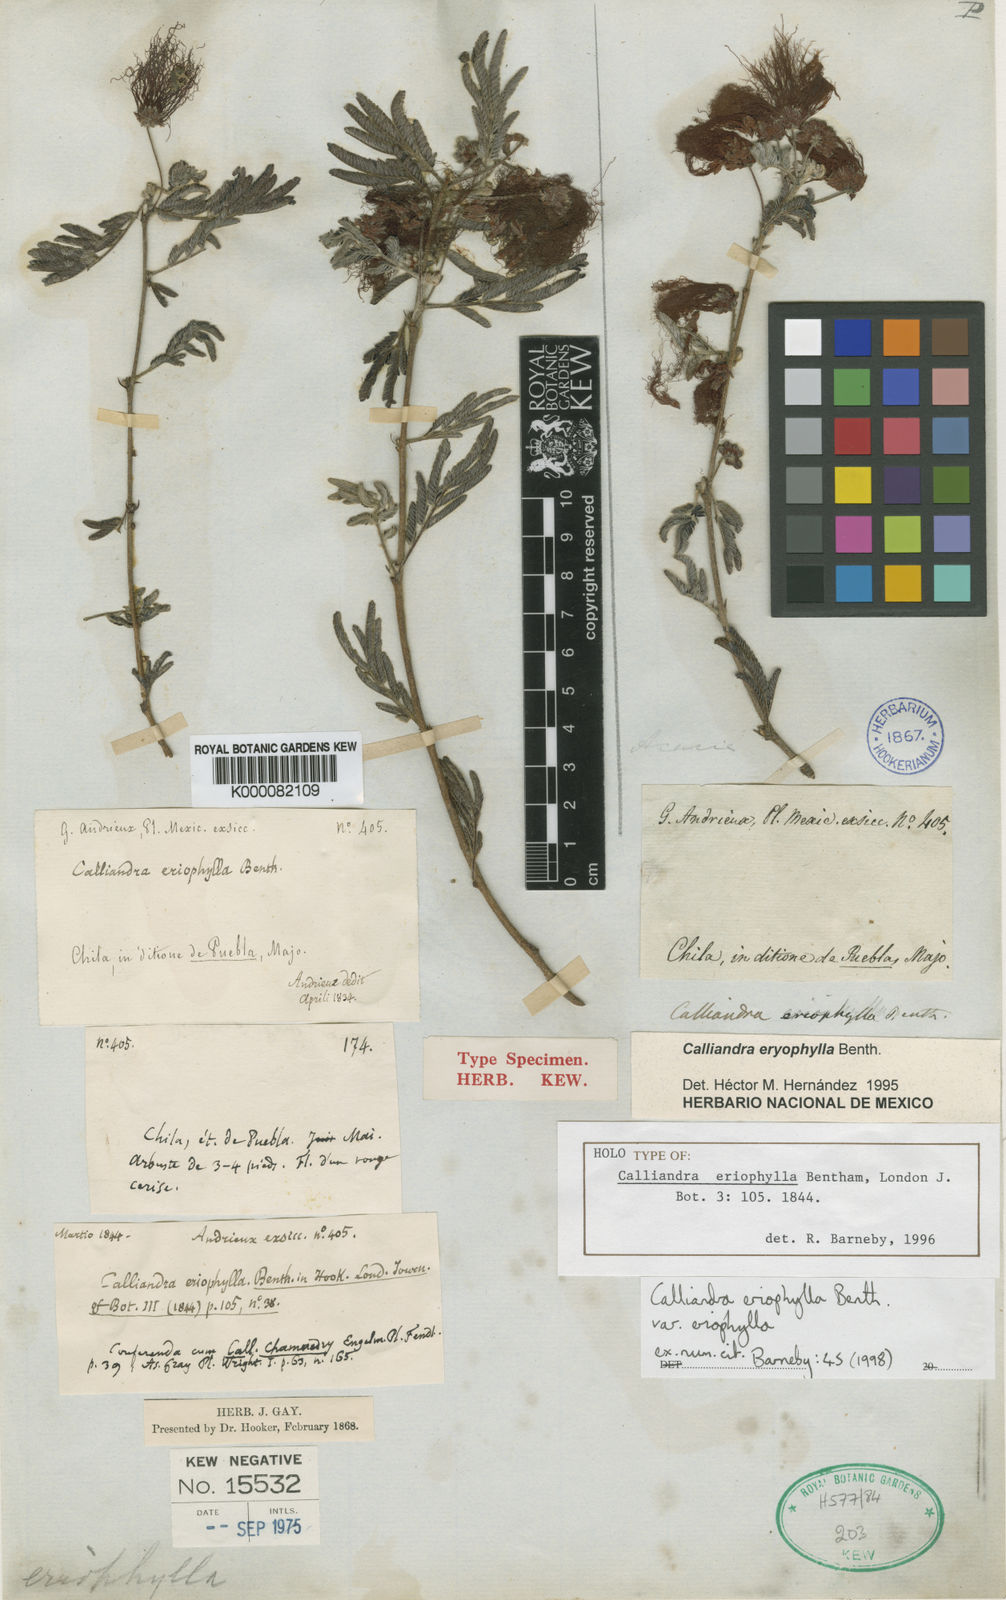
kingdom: Plantae
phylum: Tracheophyta
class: Magnoliopsida
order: Fabales
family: Fabaceae
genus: Calliandra
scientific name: Calliandra eriophylla
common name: Fairy-duster
